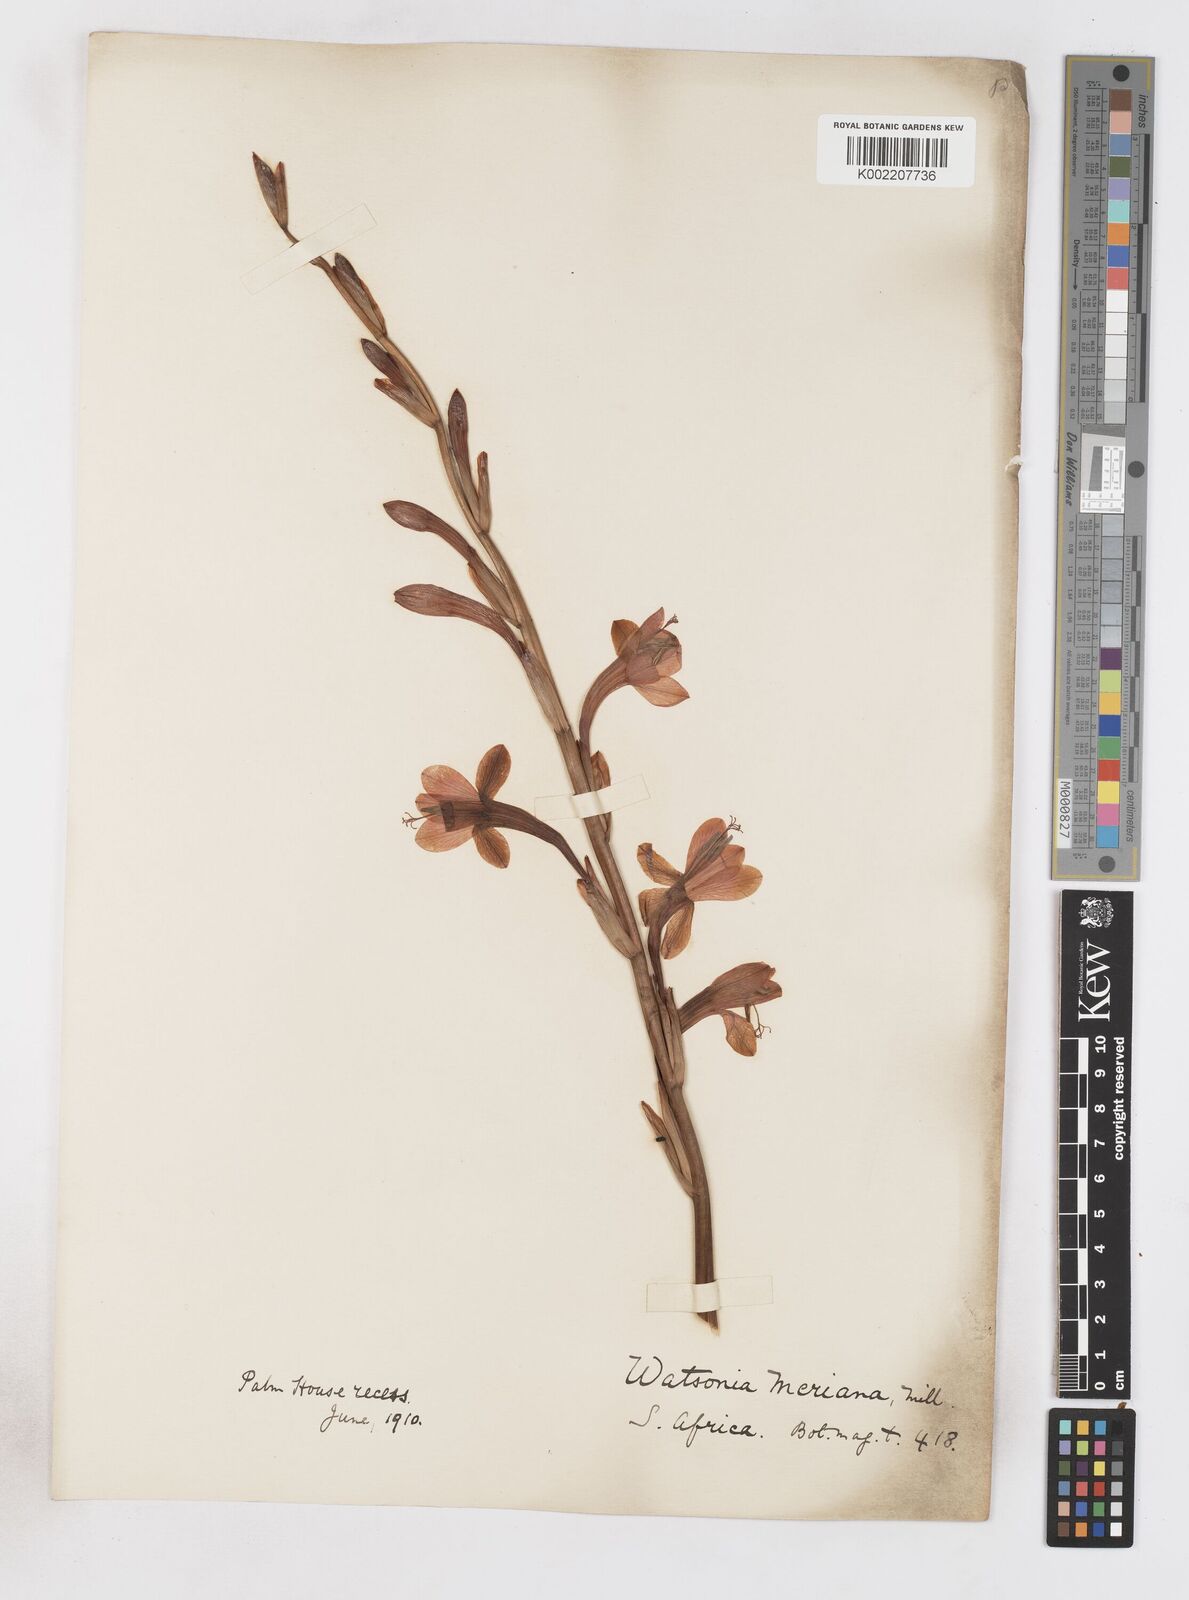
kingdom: Plantae
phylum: Tracheophyta
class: Liliopsida
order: Asparagales
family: Iridaceae
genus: Watsonia
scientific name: Watsonia meriana
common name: Bulbil bugle-lily
